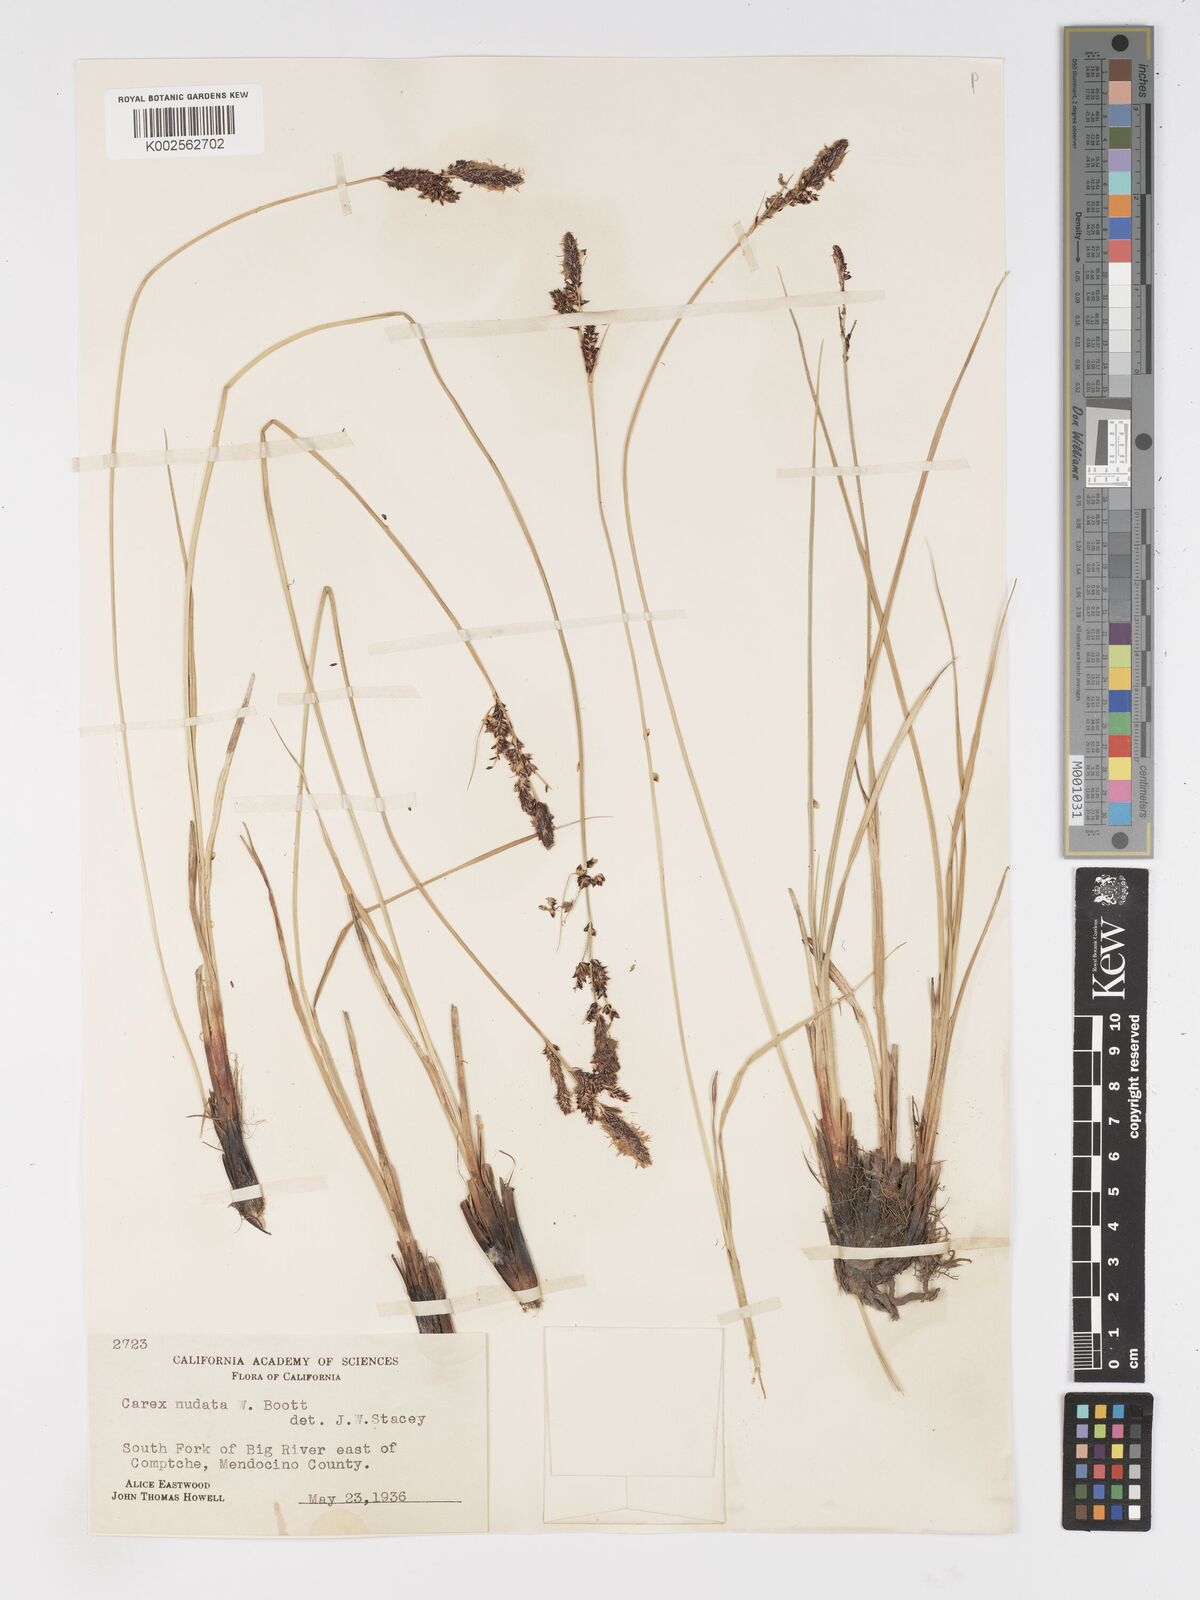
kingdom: Plantae
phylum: Tracheophyta
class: Liliopsida
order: Poales
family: Cyperaceae
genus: Carex
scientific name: Carex nudata
